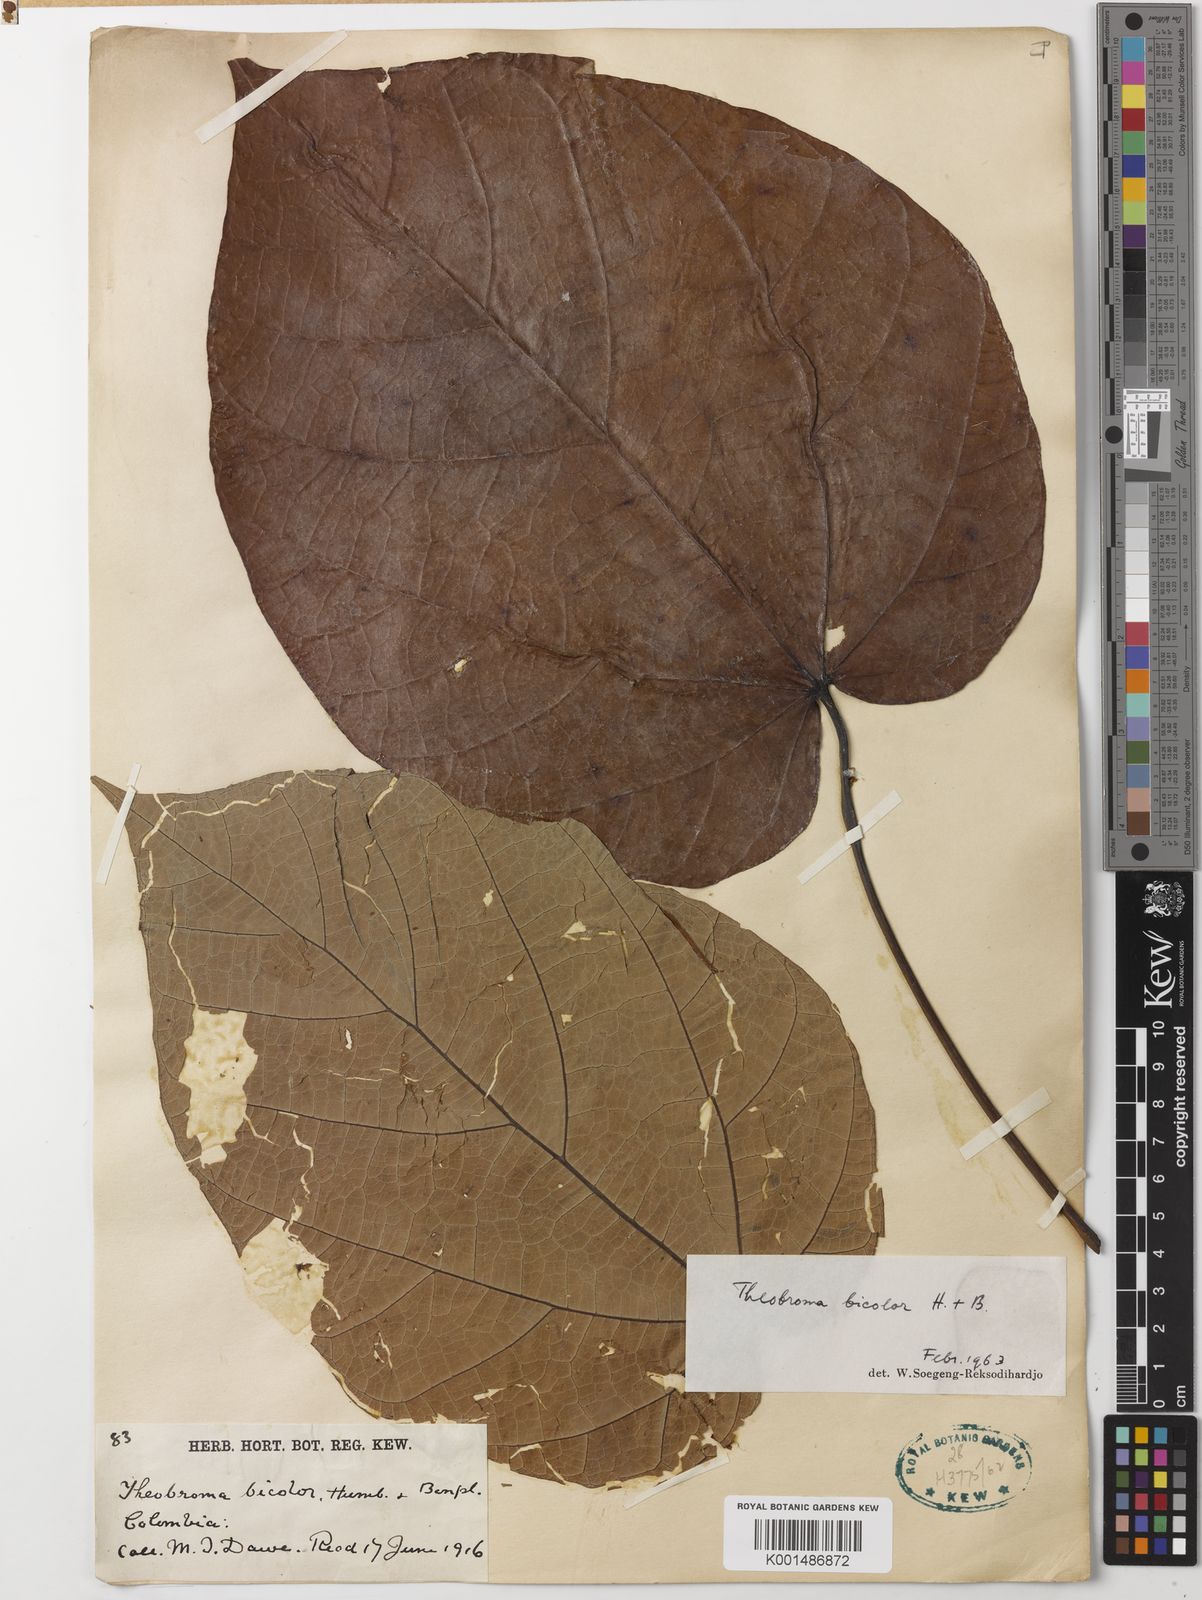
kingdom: Plantae
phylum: Tracheophyta
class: Magnoliopsida
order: Malvales
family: Malvaceae
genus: Theobroma
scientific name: Theobroma bicolor
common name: Macambo tree
